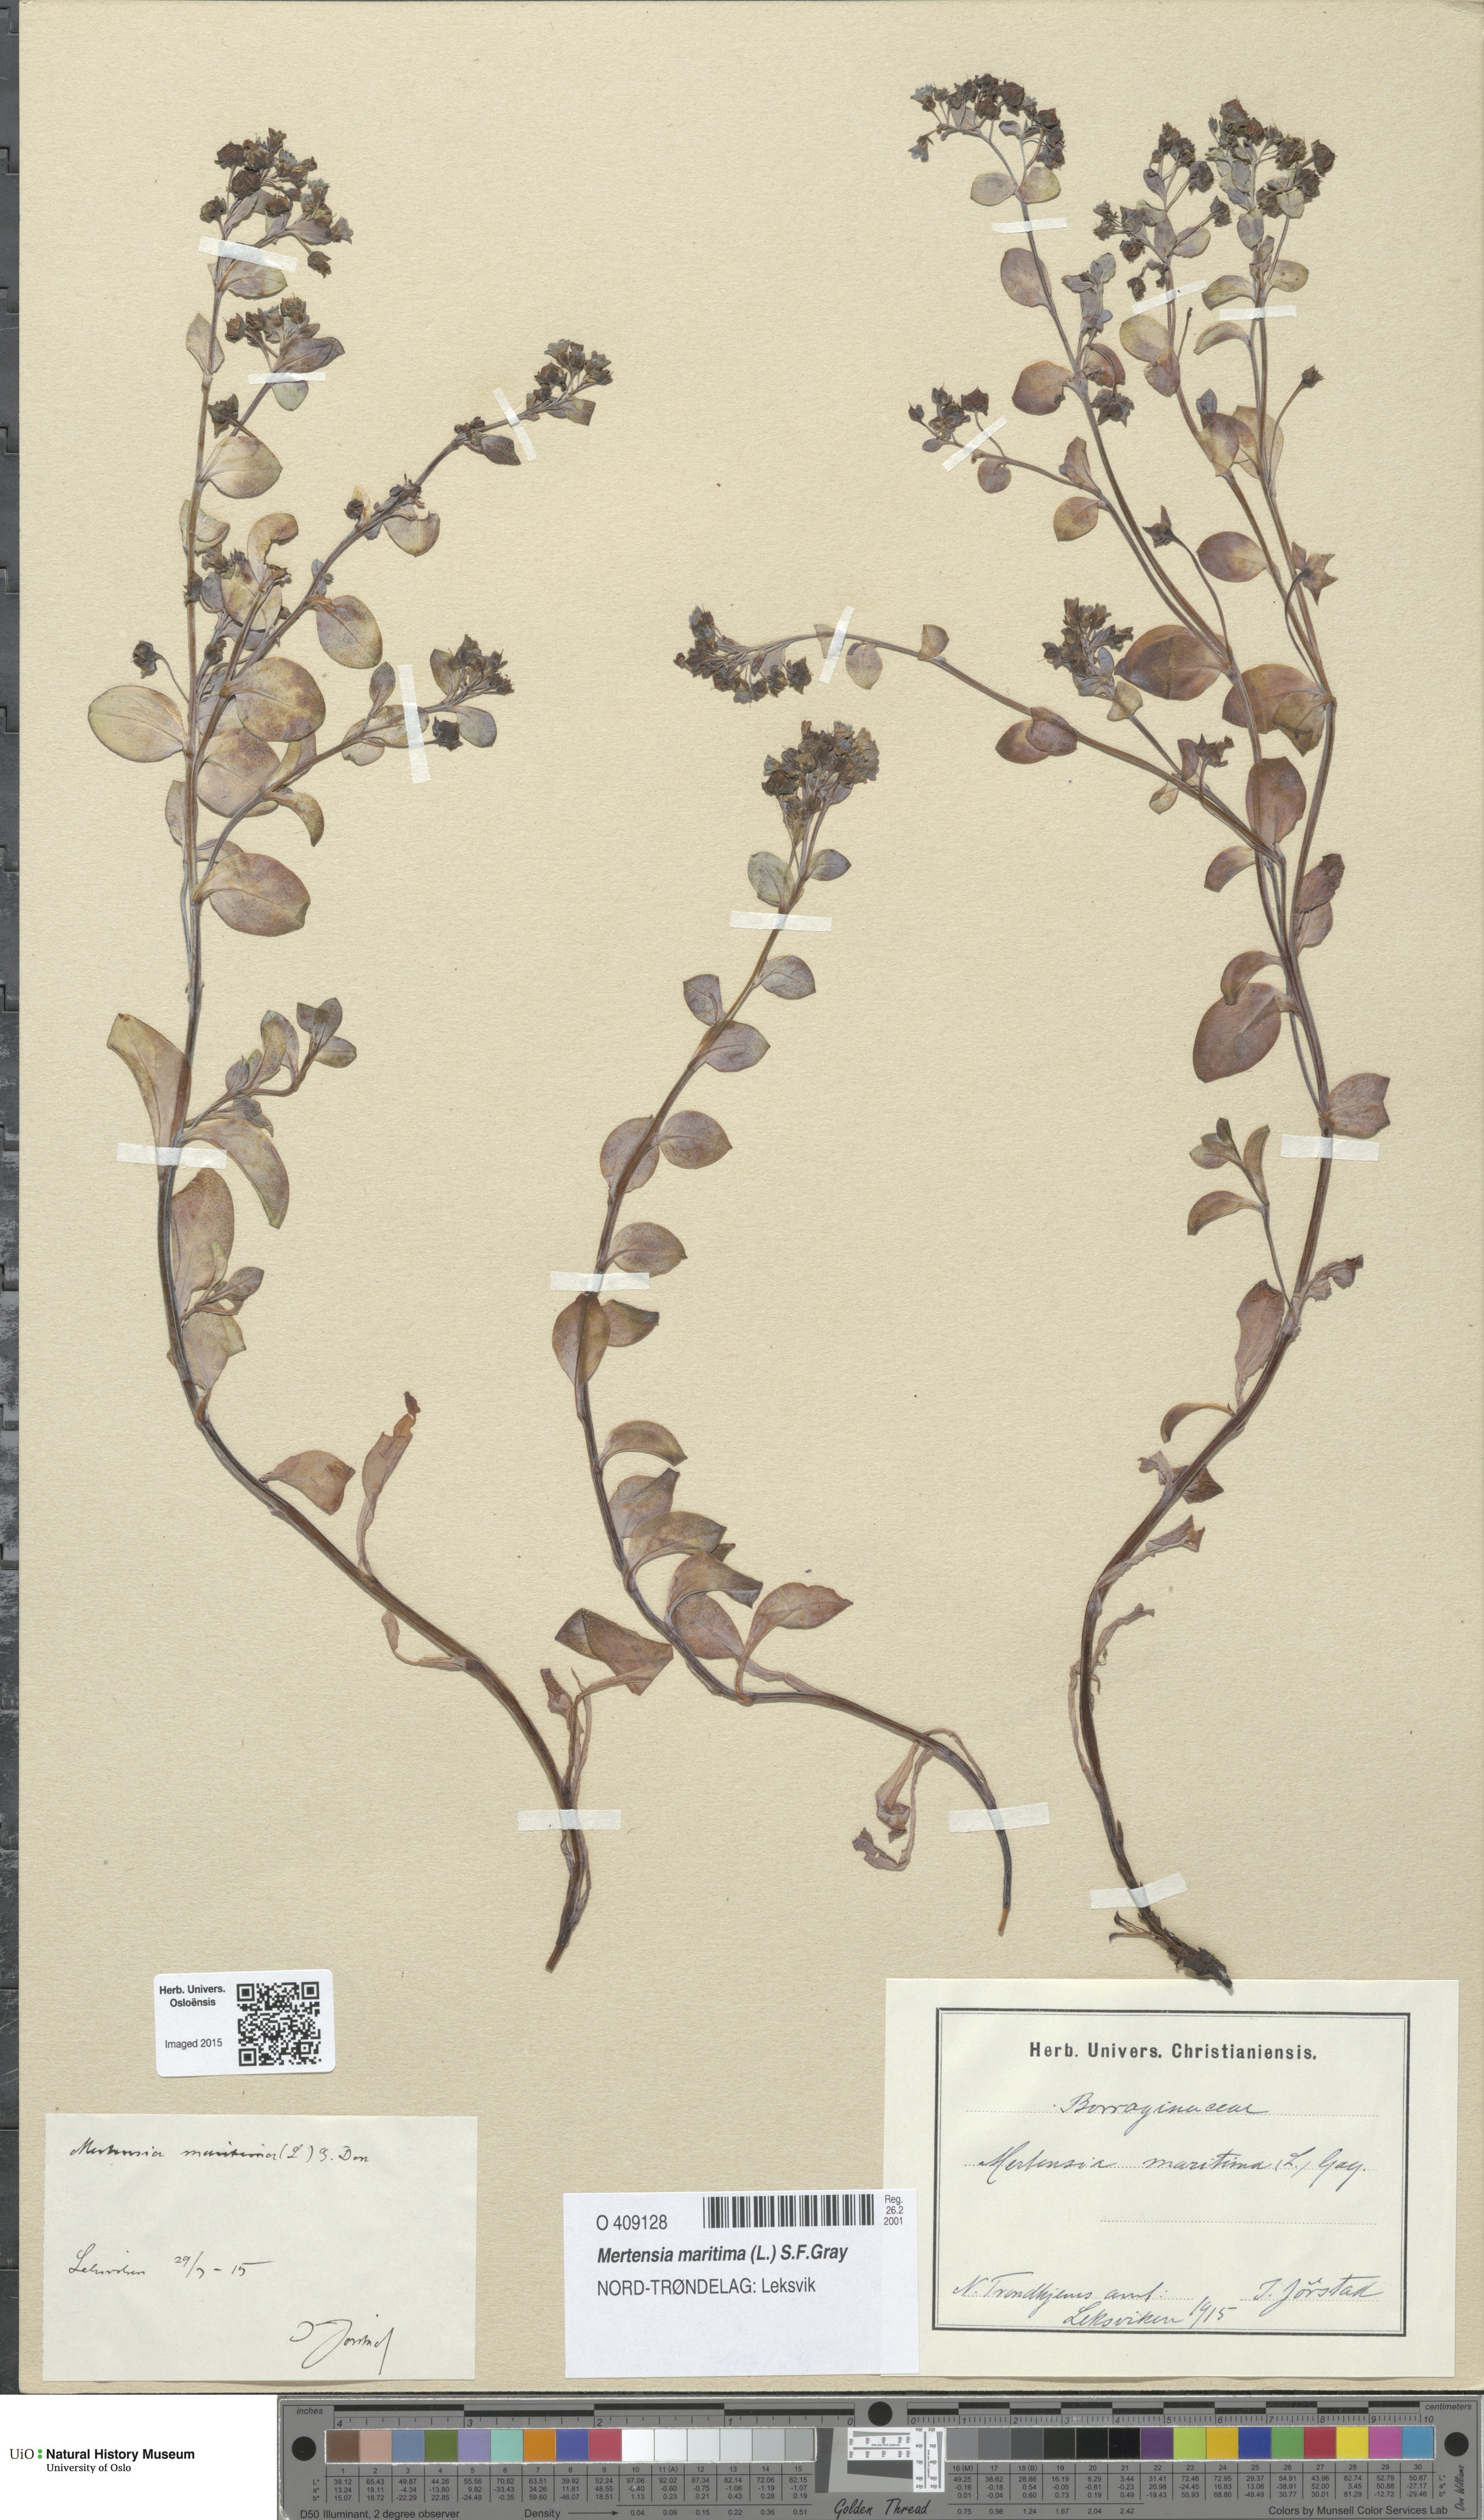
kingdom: Plantae
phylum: Tracheophyta
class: Magnoliopsida
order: Boraginales
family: Boraginaceae
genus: Mertensia
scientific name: Mertensia maritima
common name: Oysterplant
